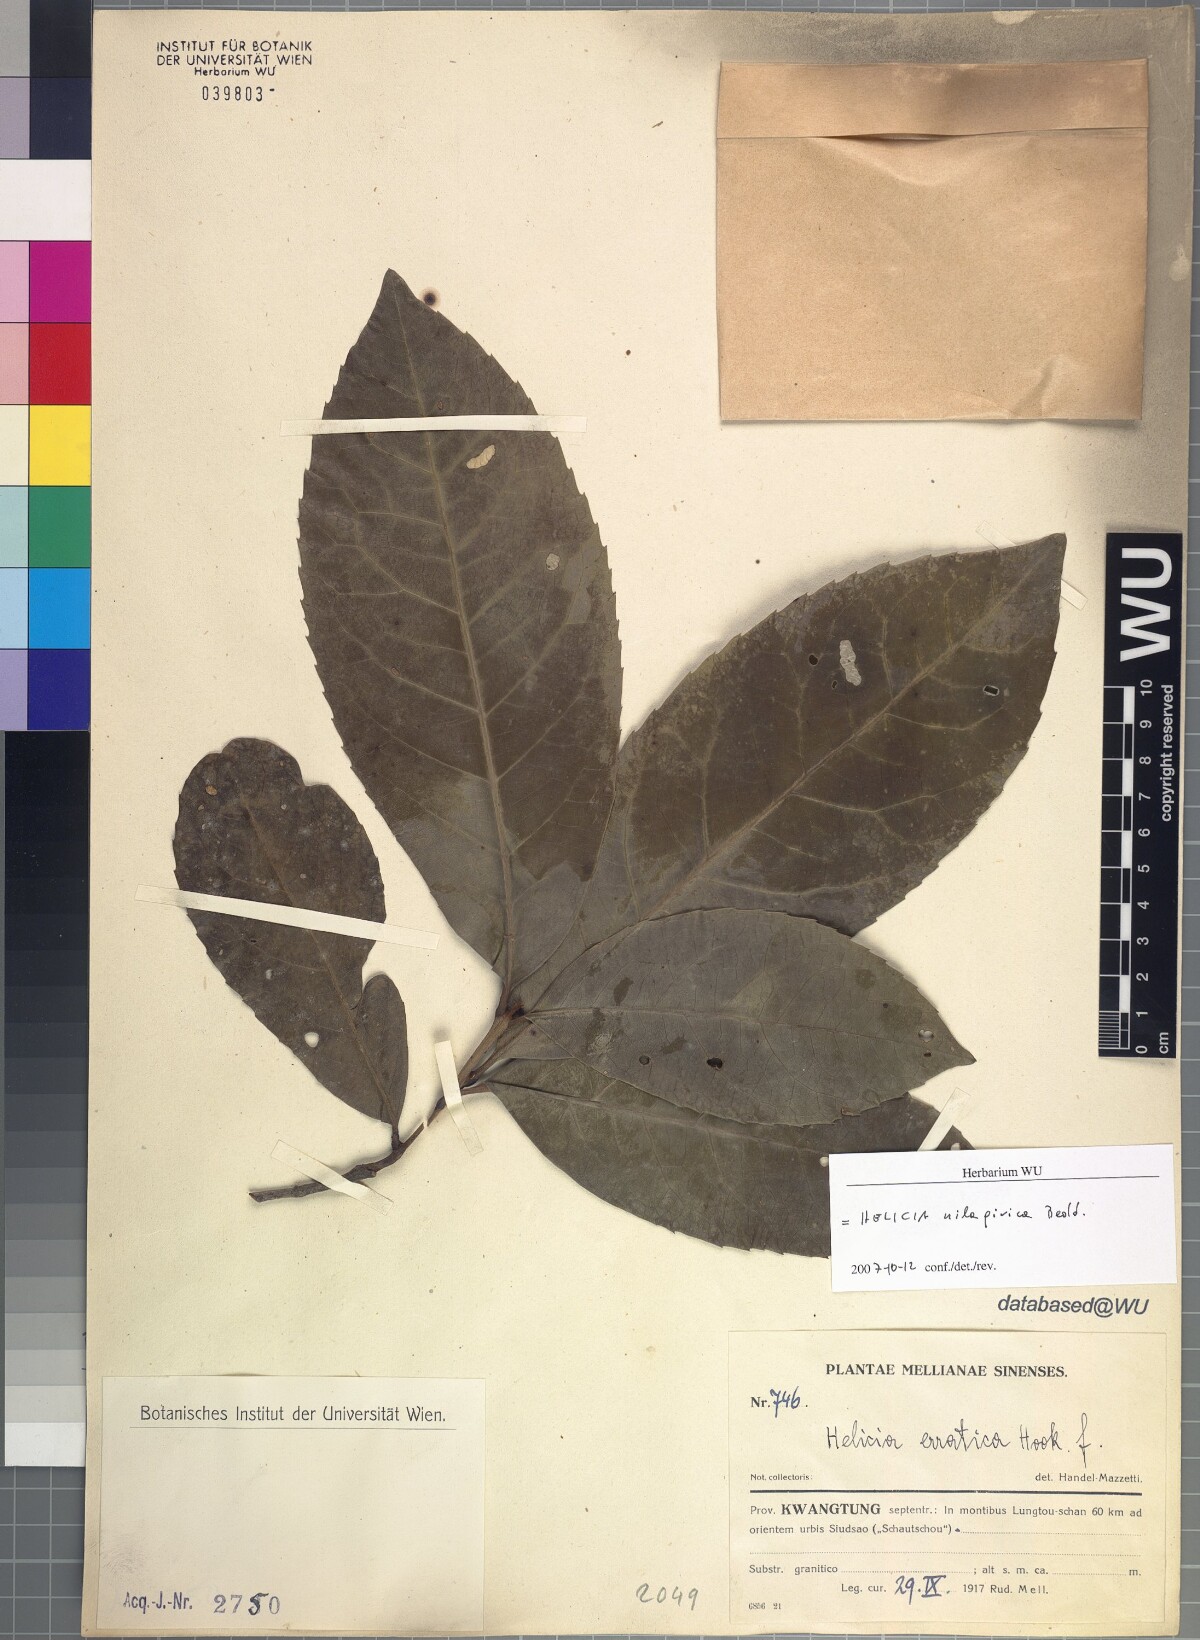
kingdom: Plantae
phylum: Tracheophyta
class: Magnoliopsida
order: Proteales
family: Proteaceae
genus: Helicia
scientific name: Helicia nilagirica
